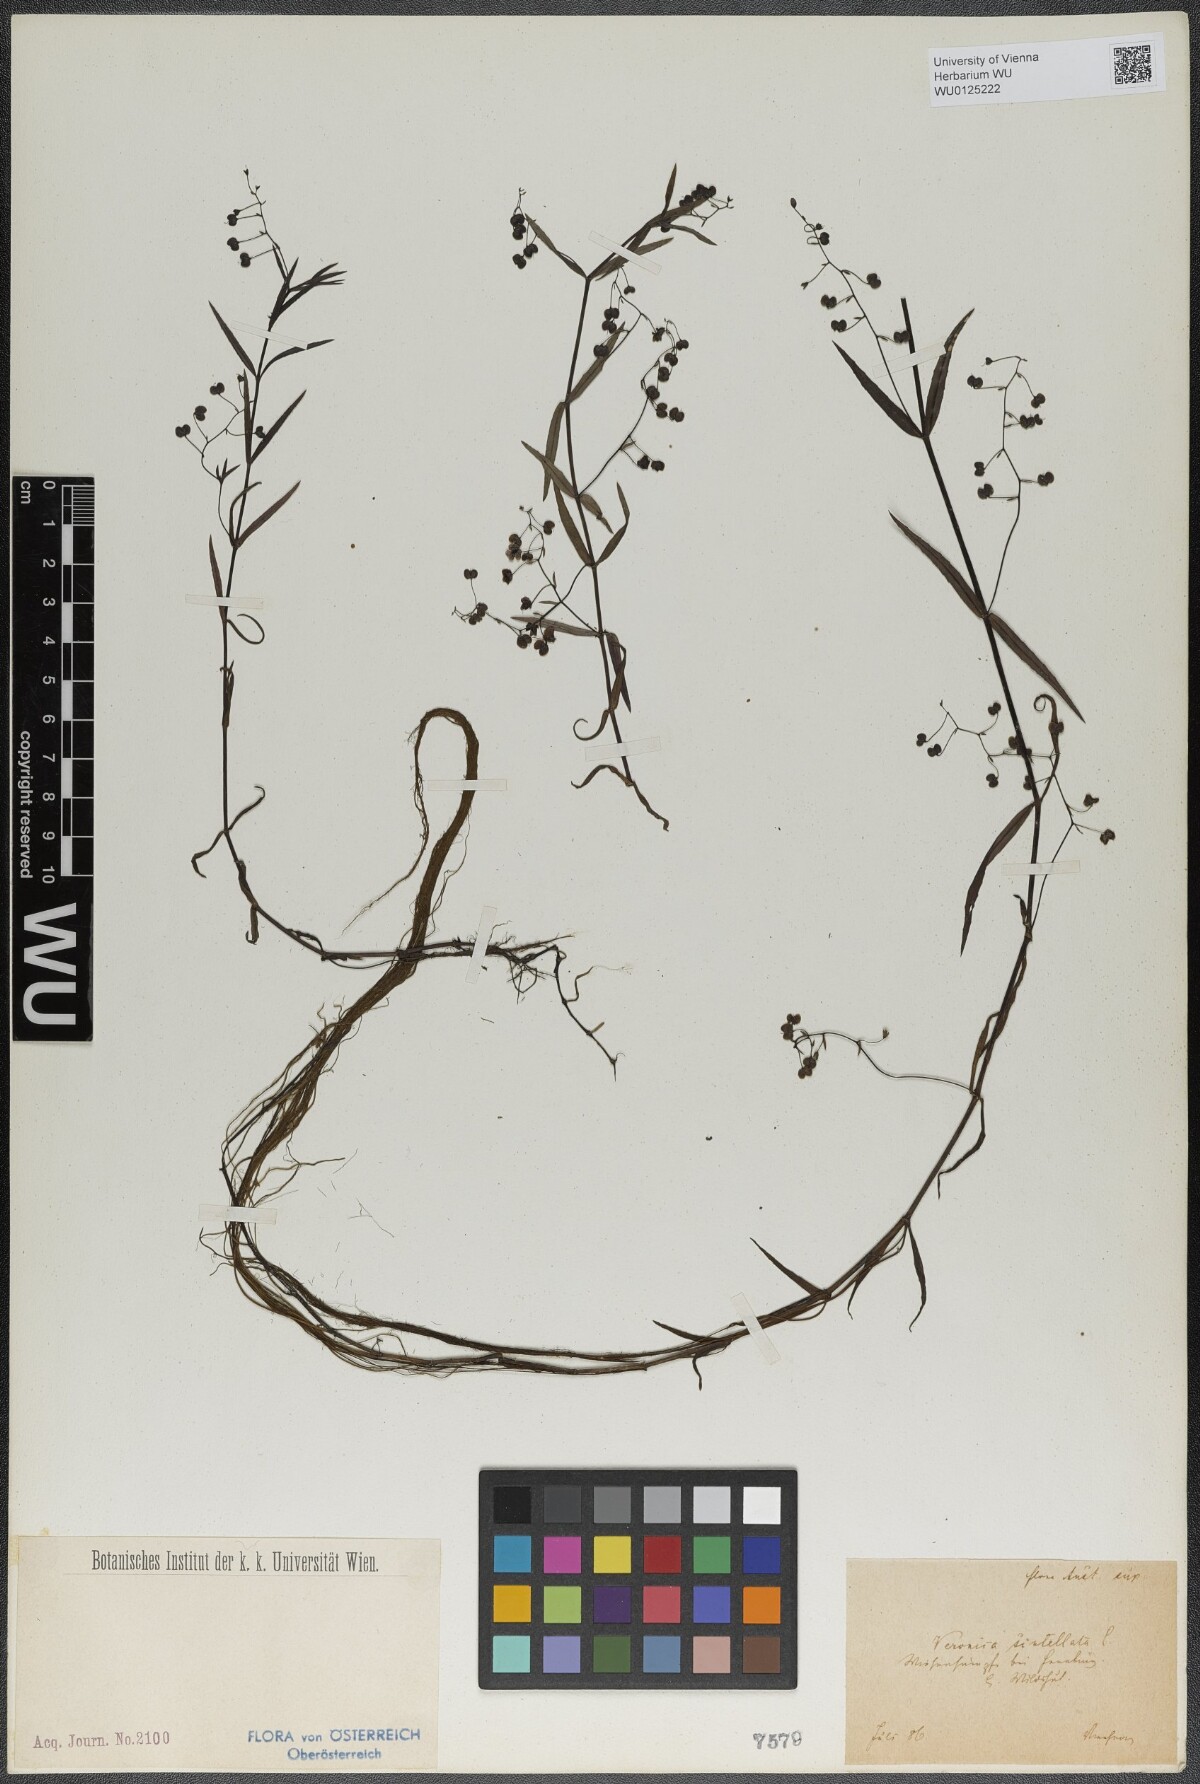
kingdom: Plantae
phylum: Tracheophyta
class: Magnoliopsida
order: Lamiales
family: Plantaginaceae
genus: Veronica
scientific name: Veronica scutellata
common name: Marsh speedwell
